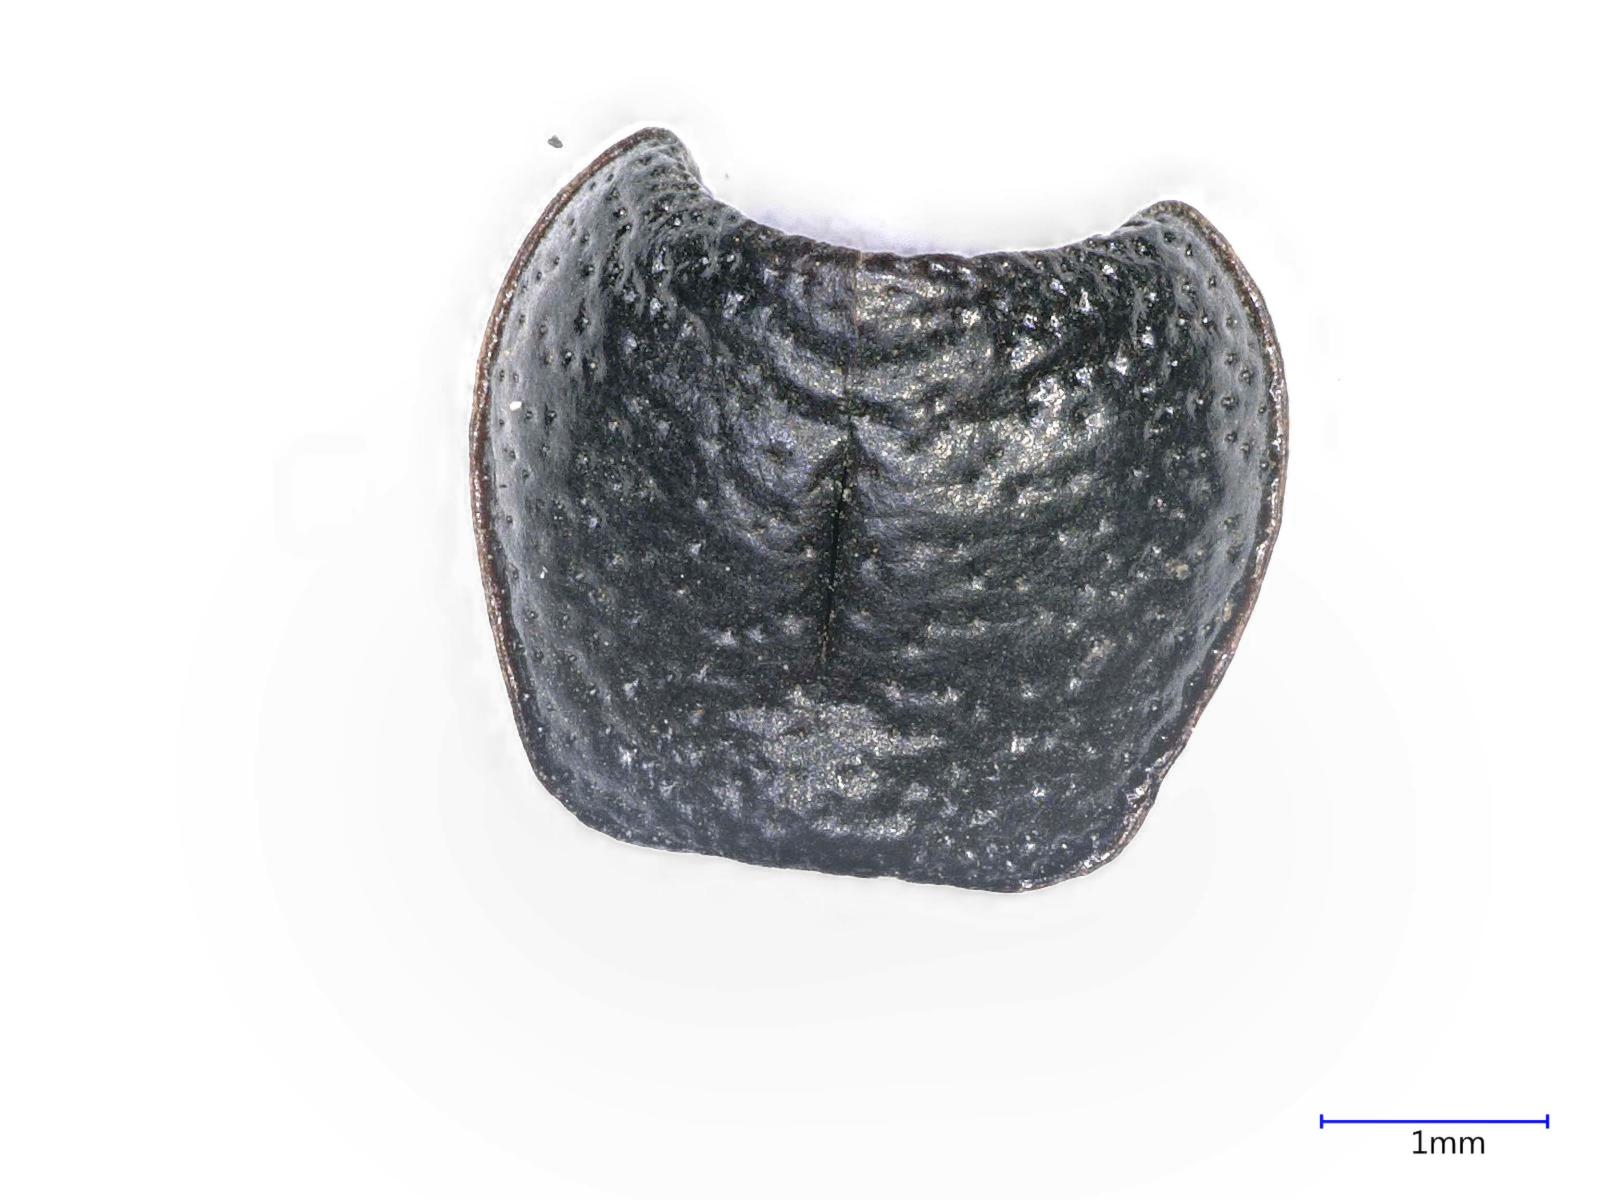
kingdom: Animalia
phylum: Arthropoda
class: Insecta
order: Coleoptera
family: Carabidae
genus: Dicheirus
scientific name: Dicheirus dilatatus
